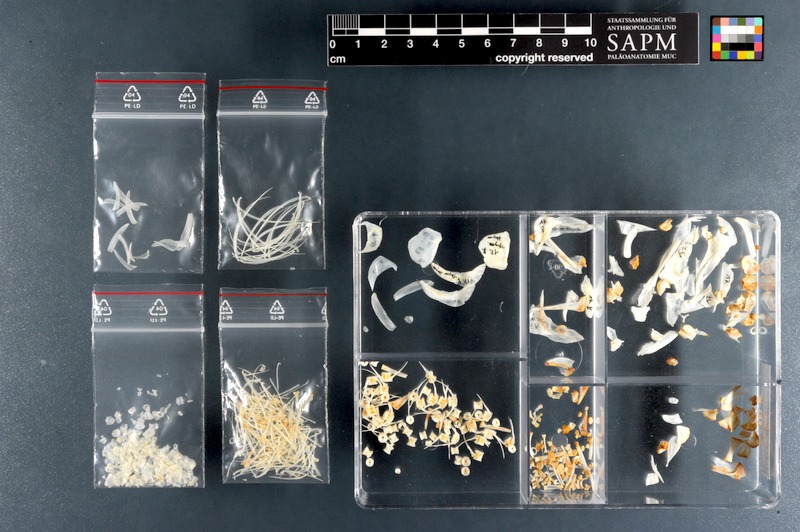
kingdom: Animalia
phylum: Chordata
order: Salmoniformes
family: Salmonidae
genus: Thymallus
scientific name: Thymallus thymallus
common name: Grayling
